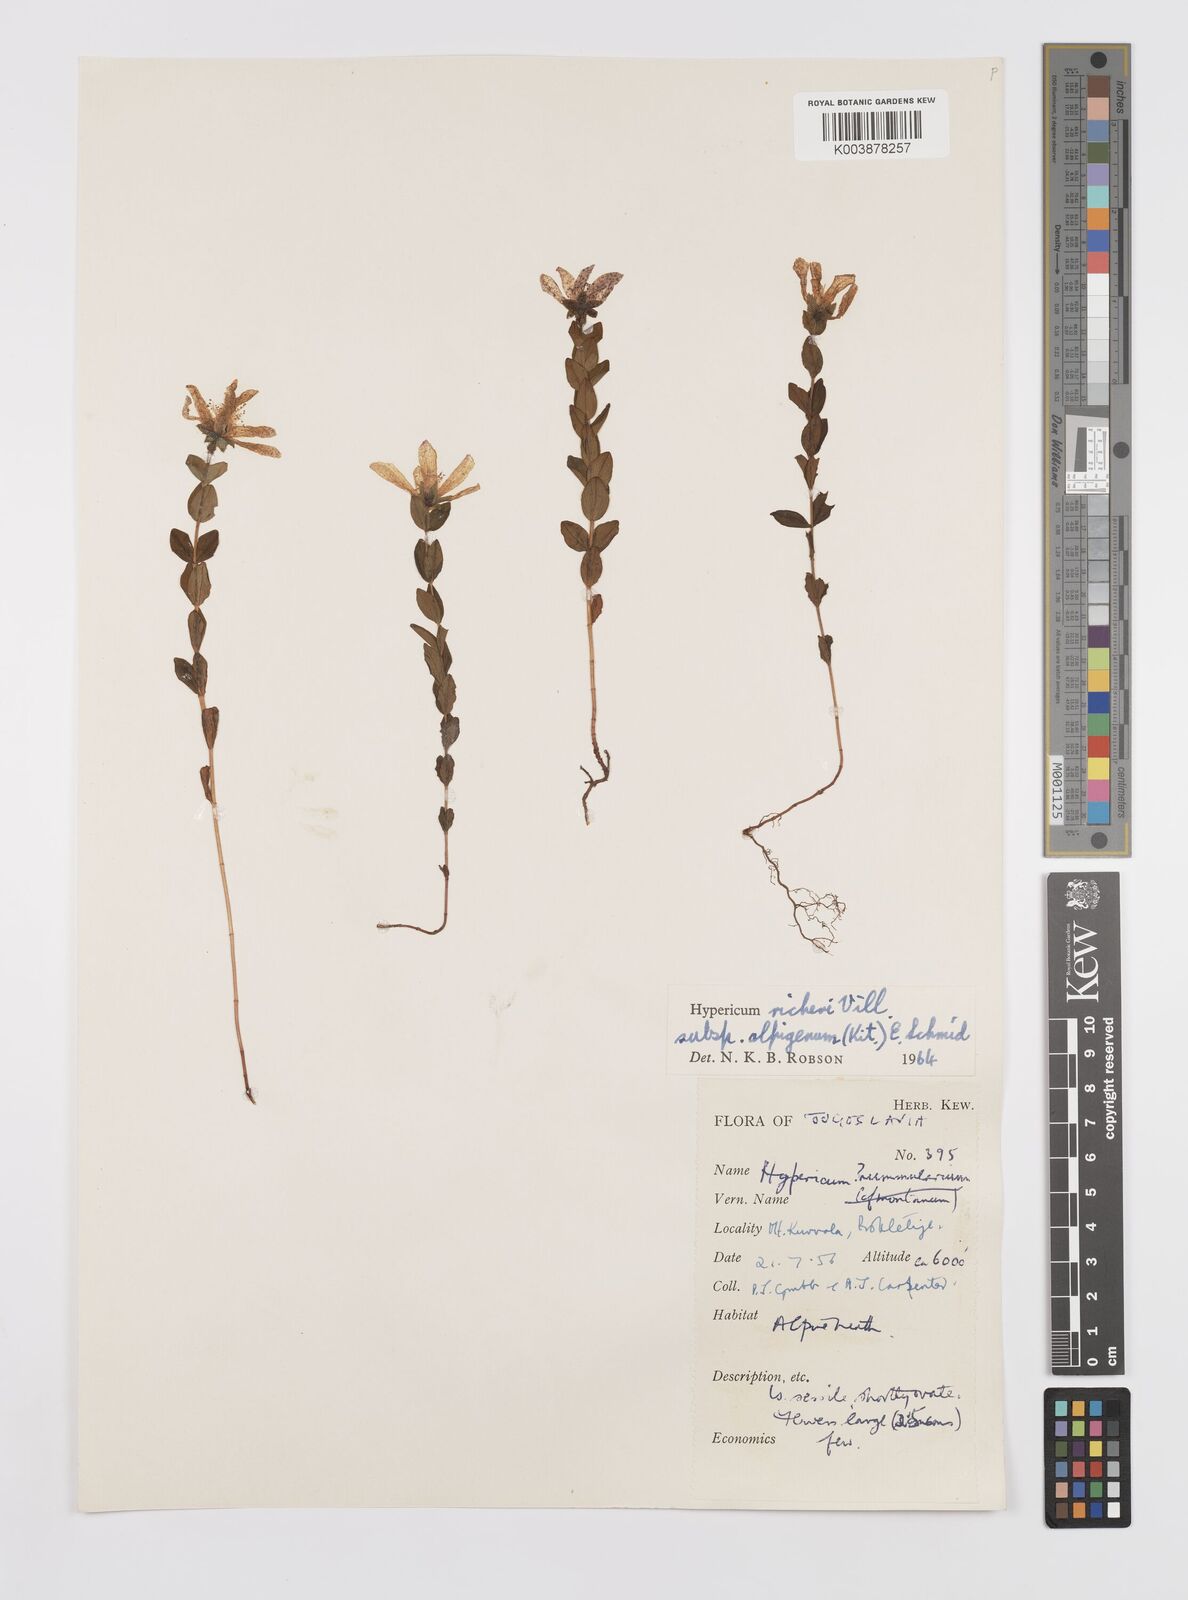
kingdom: Plantae
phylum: Tracheophyta
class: Magnoliopsida
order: Malpighiales
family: Hypericaceae
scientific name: Hypericaceae
